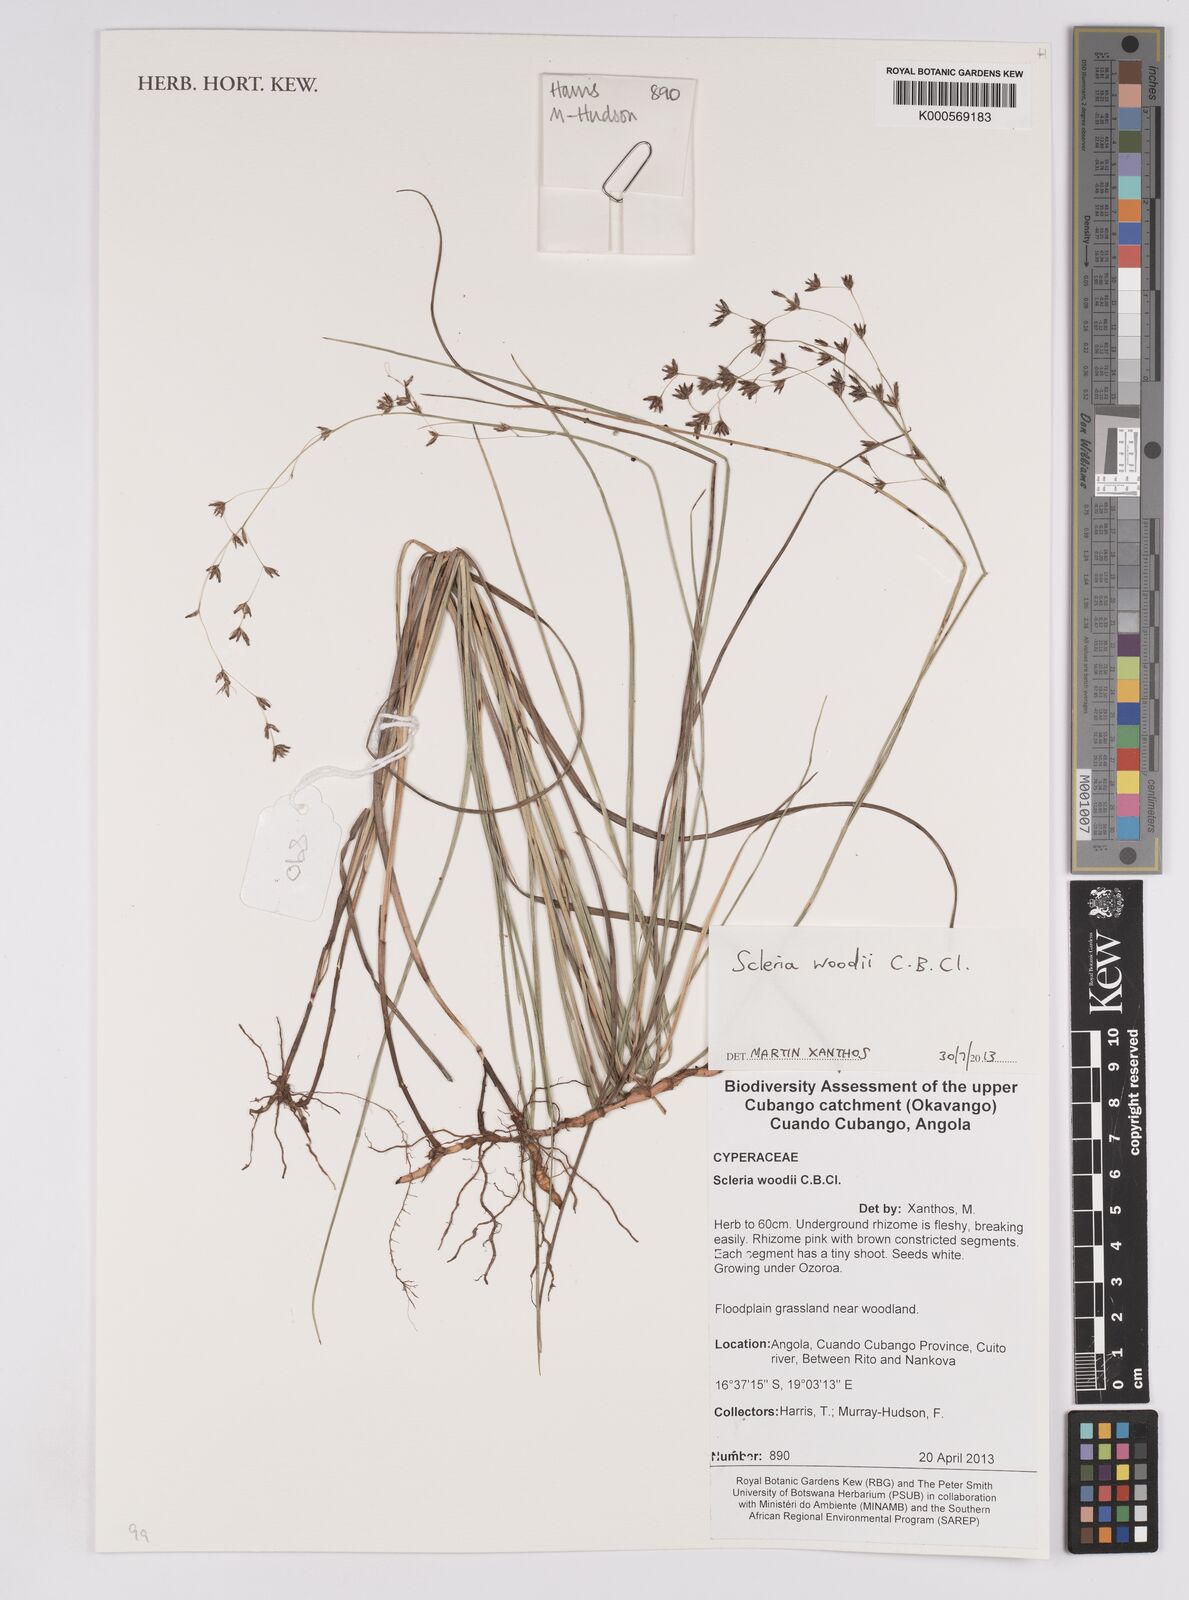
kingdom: Plantae
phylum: Tracheophyta
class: Liliopsida
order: Poales
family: Cyperaceae
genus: Scleria
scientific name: Scleria woodii
